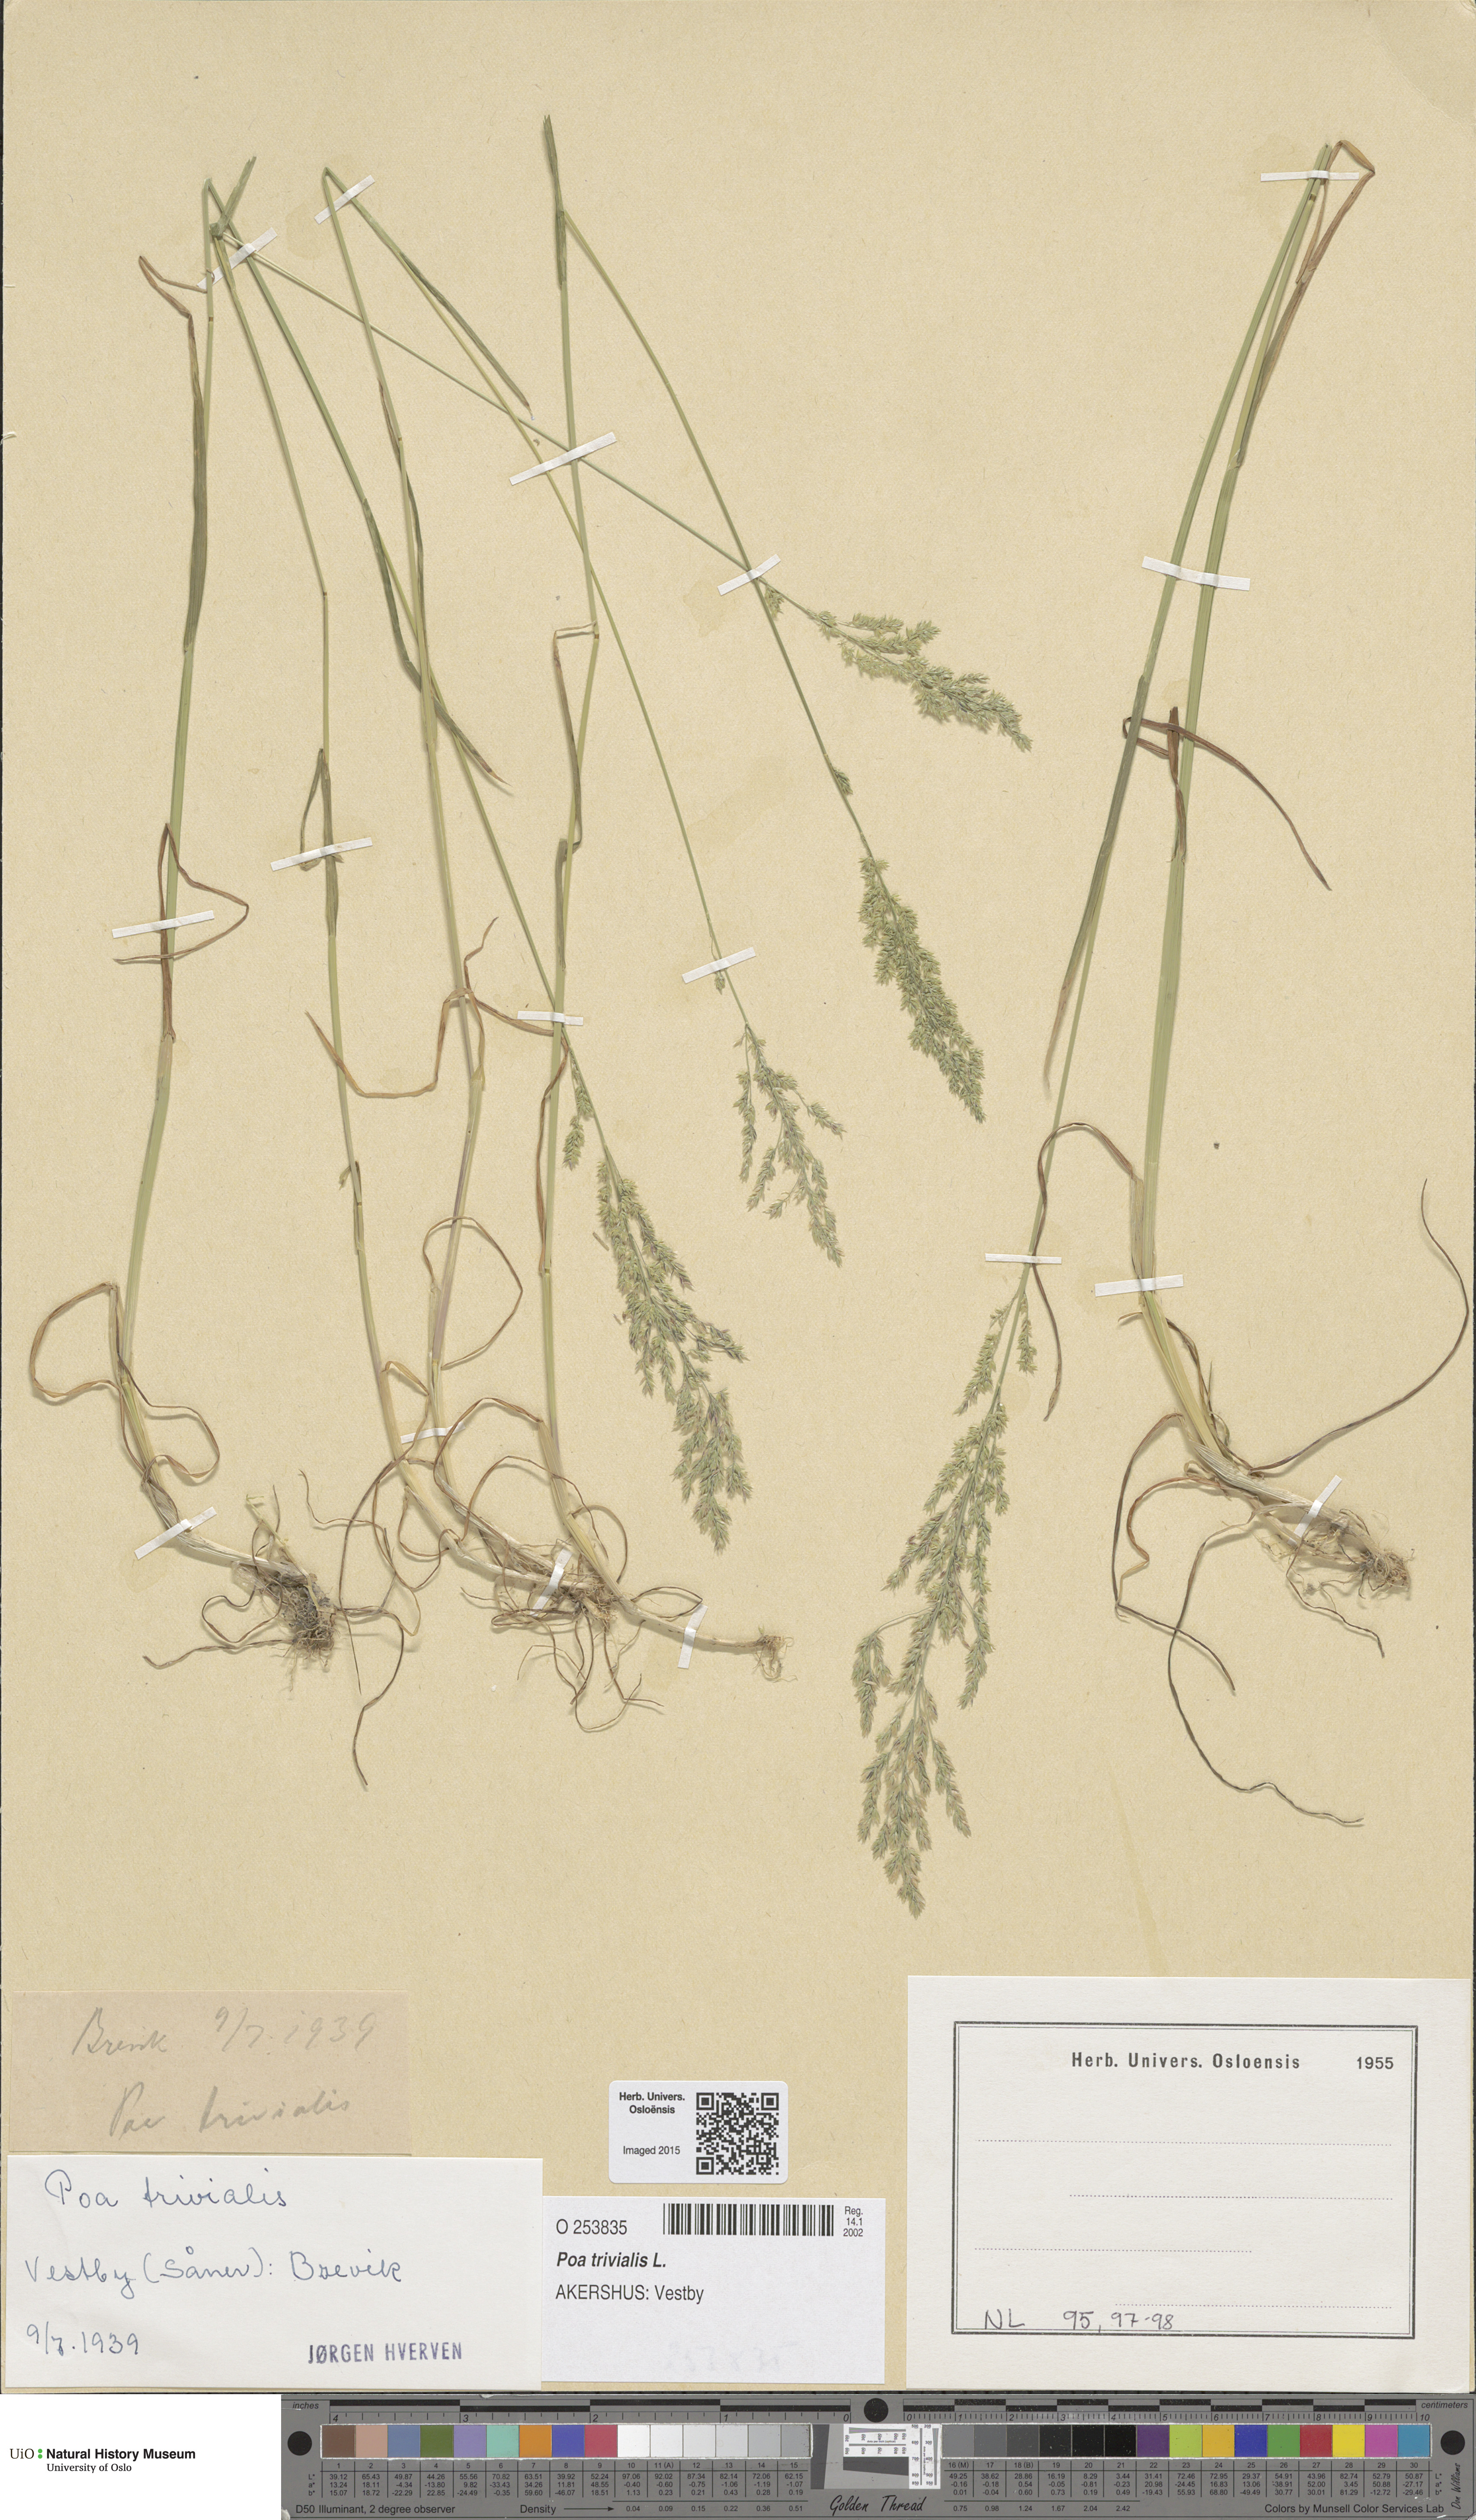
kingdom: Plantae
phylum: Tracheophyta
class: Liliopsida
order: Poales
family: Poaceae
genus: Poa
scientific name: Poa trivialis
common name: Rough bluegrass
